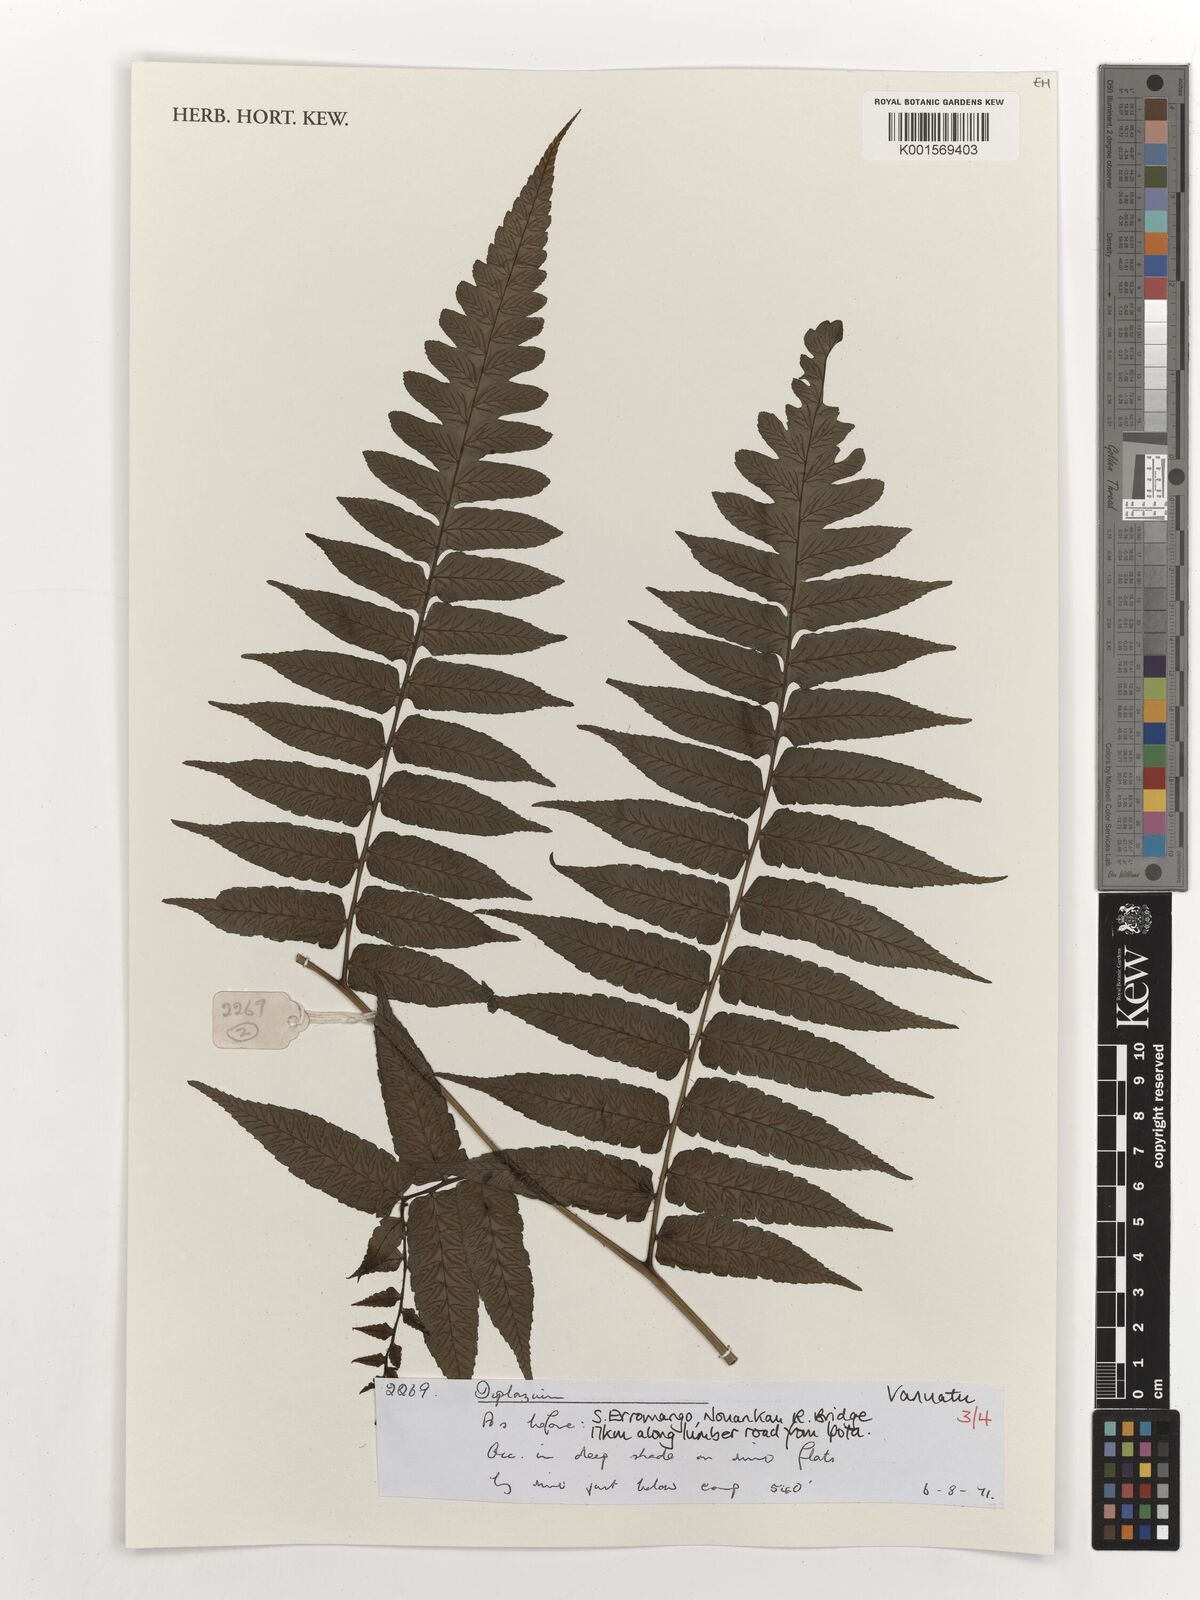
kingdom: Plantae
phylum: Tracheophyta
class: Polypodiopsida
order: Polypodiales
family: Athyriaceae
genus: Diplazium
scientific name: Diplazium
